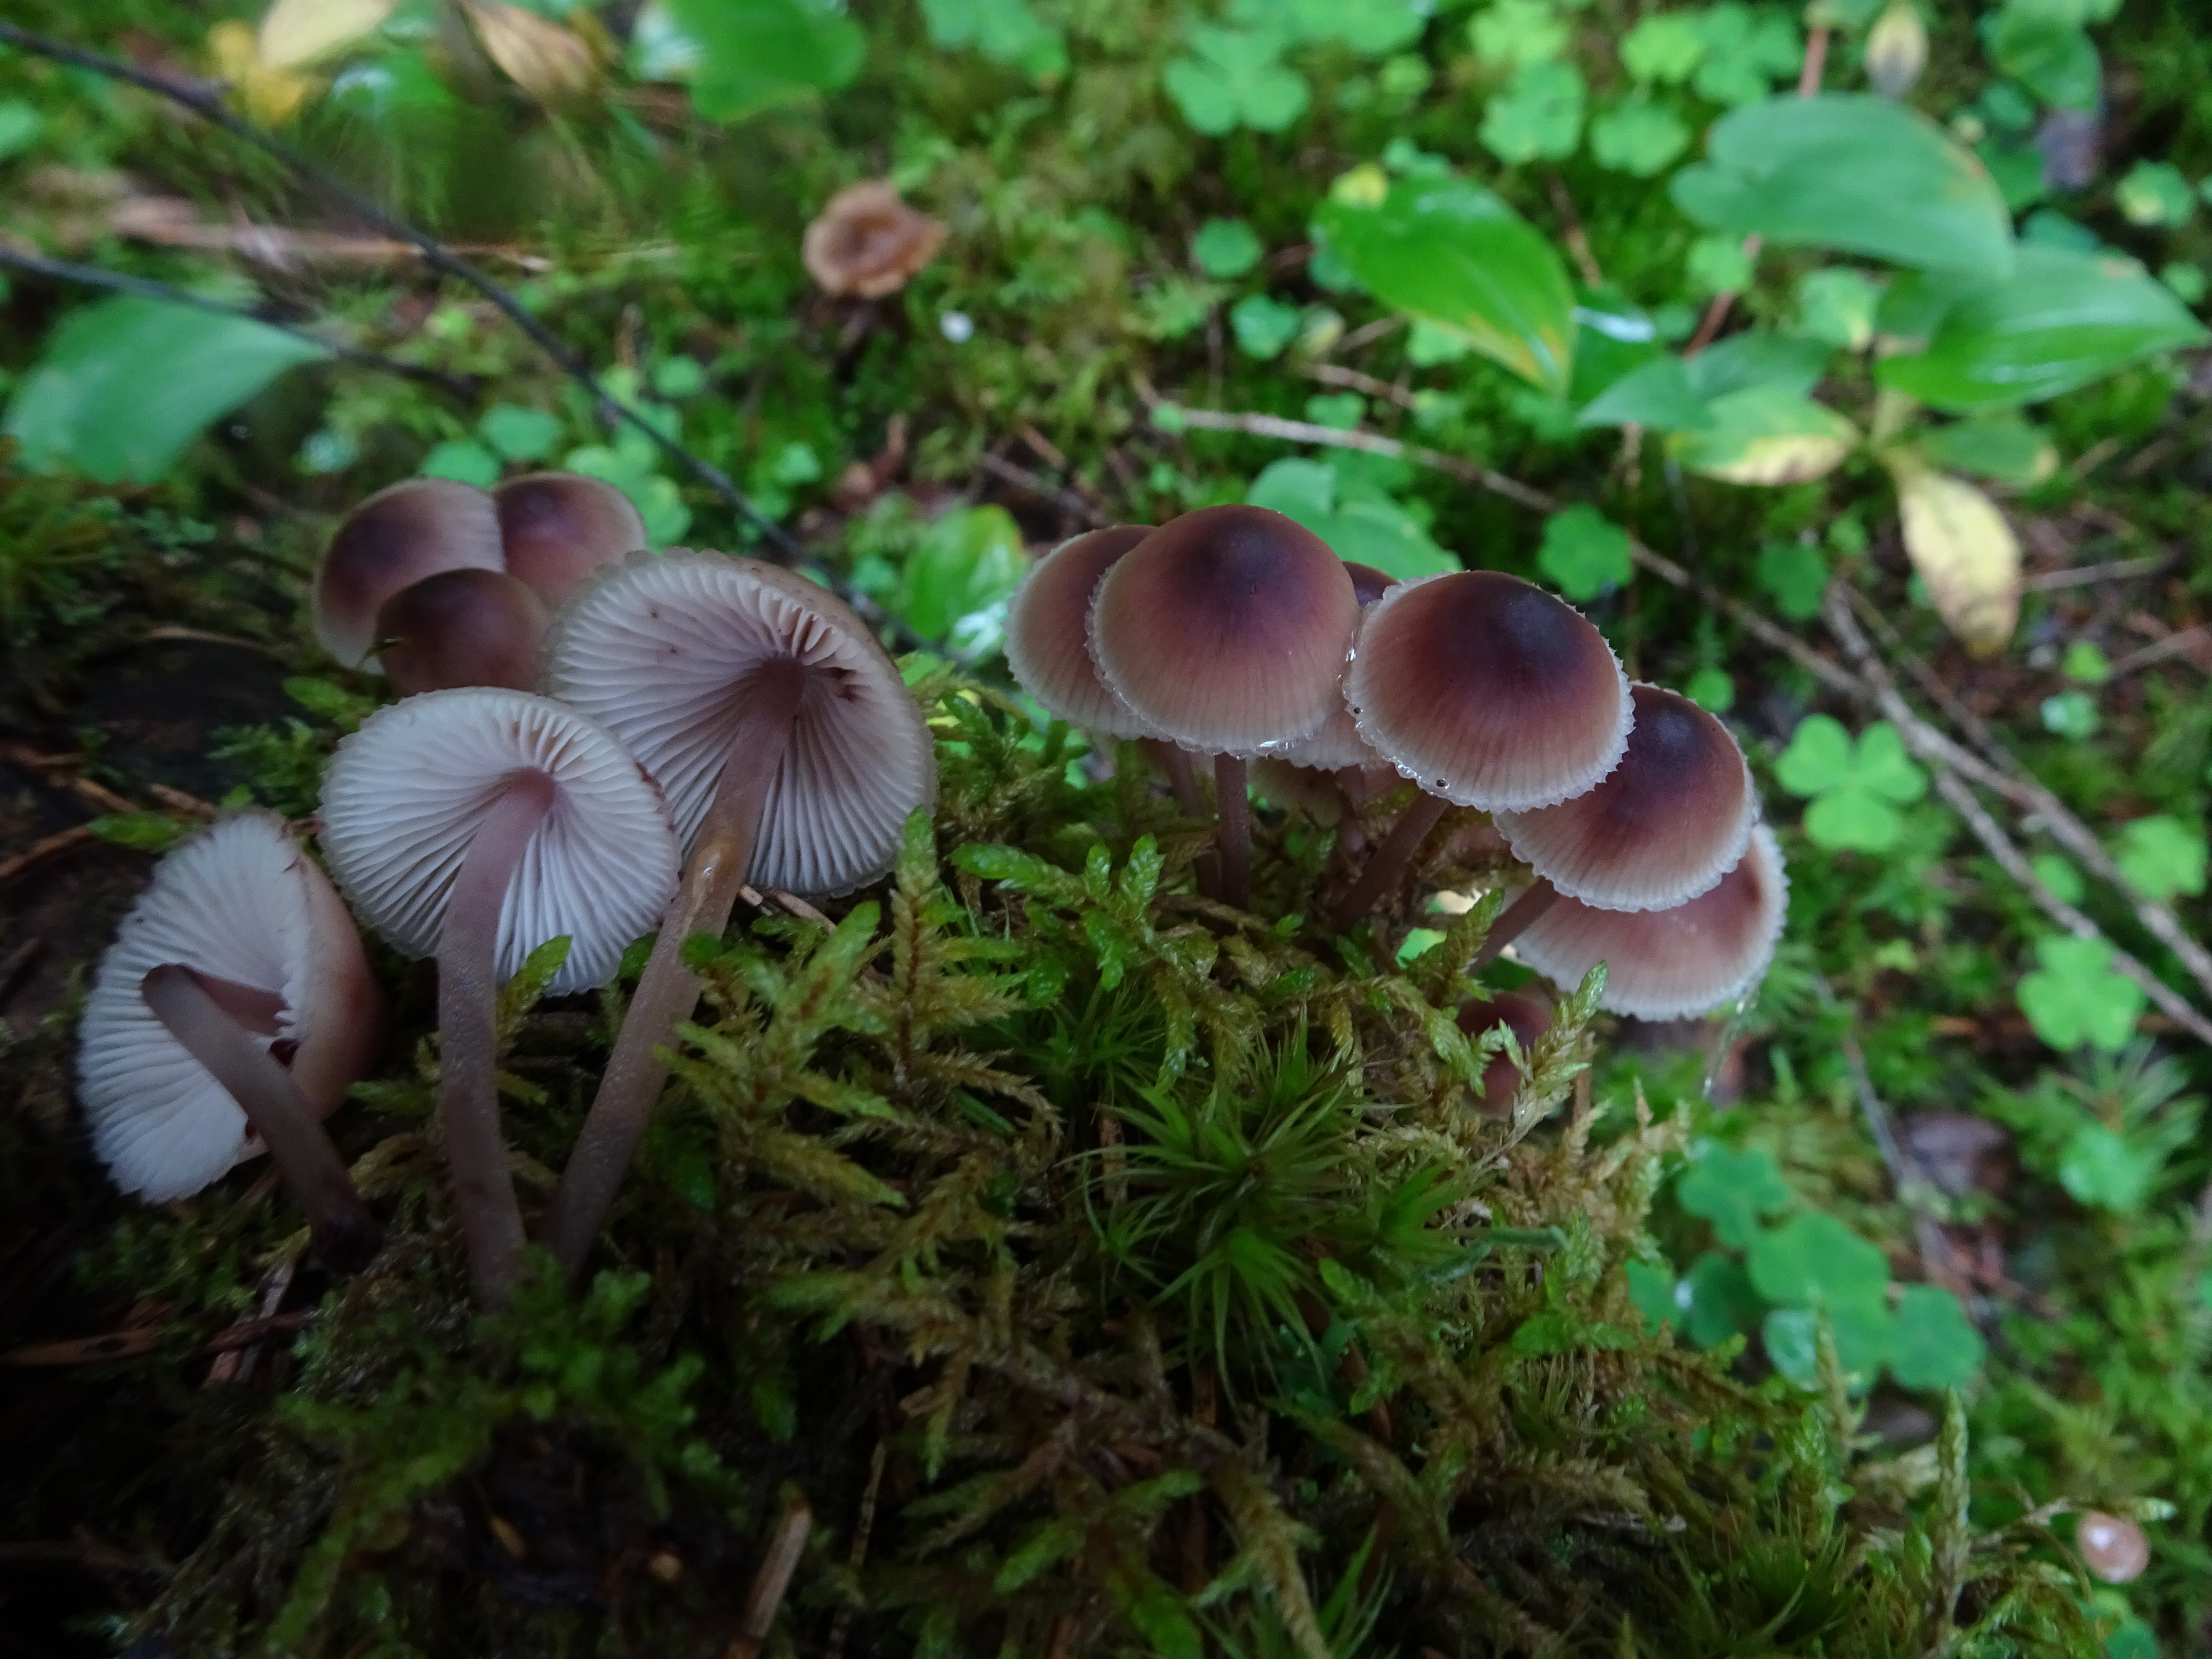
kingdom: Fungi
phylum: Basidiomycota
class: Agaricomycetes
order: Agaricales
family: Mycenaceae
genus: Mycena
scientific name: Mycena haematopus
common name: Burgundydrop bonnet
